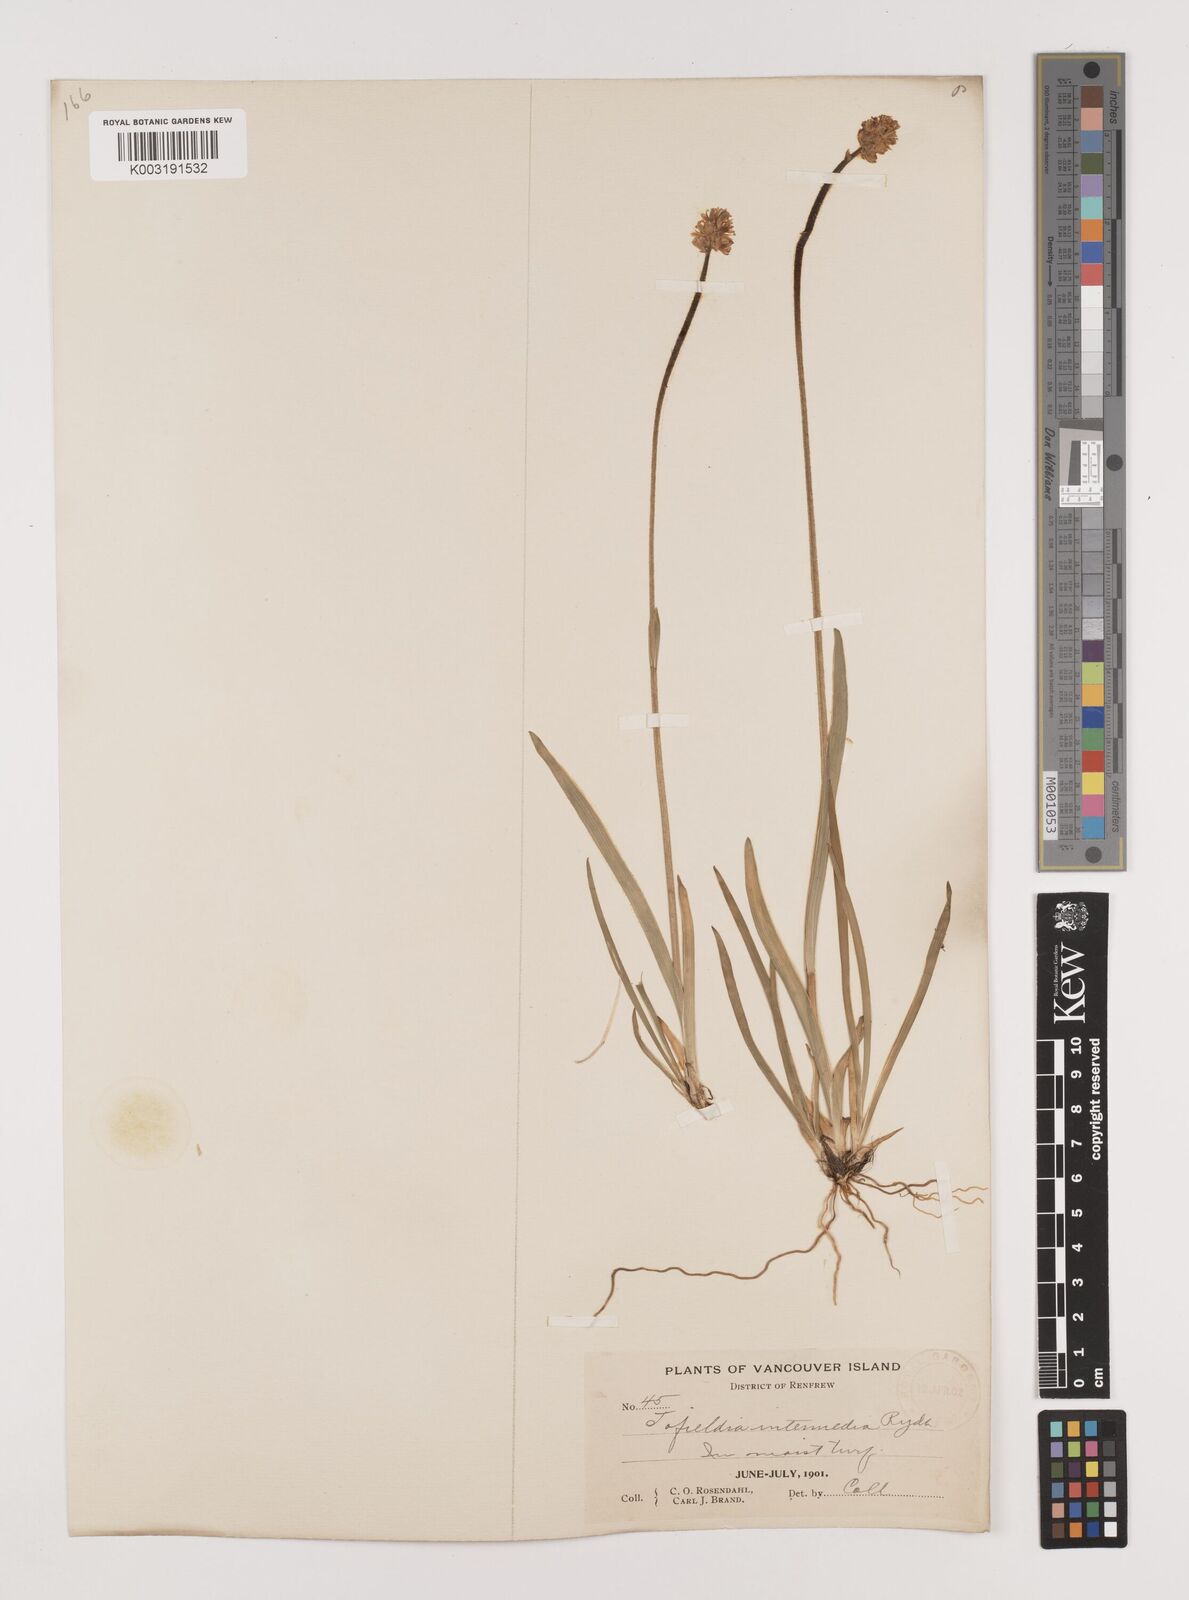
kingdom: Plantae
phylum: Tracheophyta
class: Liliopsida
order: Alismatales
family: Tofieldiaceae
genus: Triantha
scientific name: Triantha occidentalis
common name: Western false asphodel
